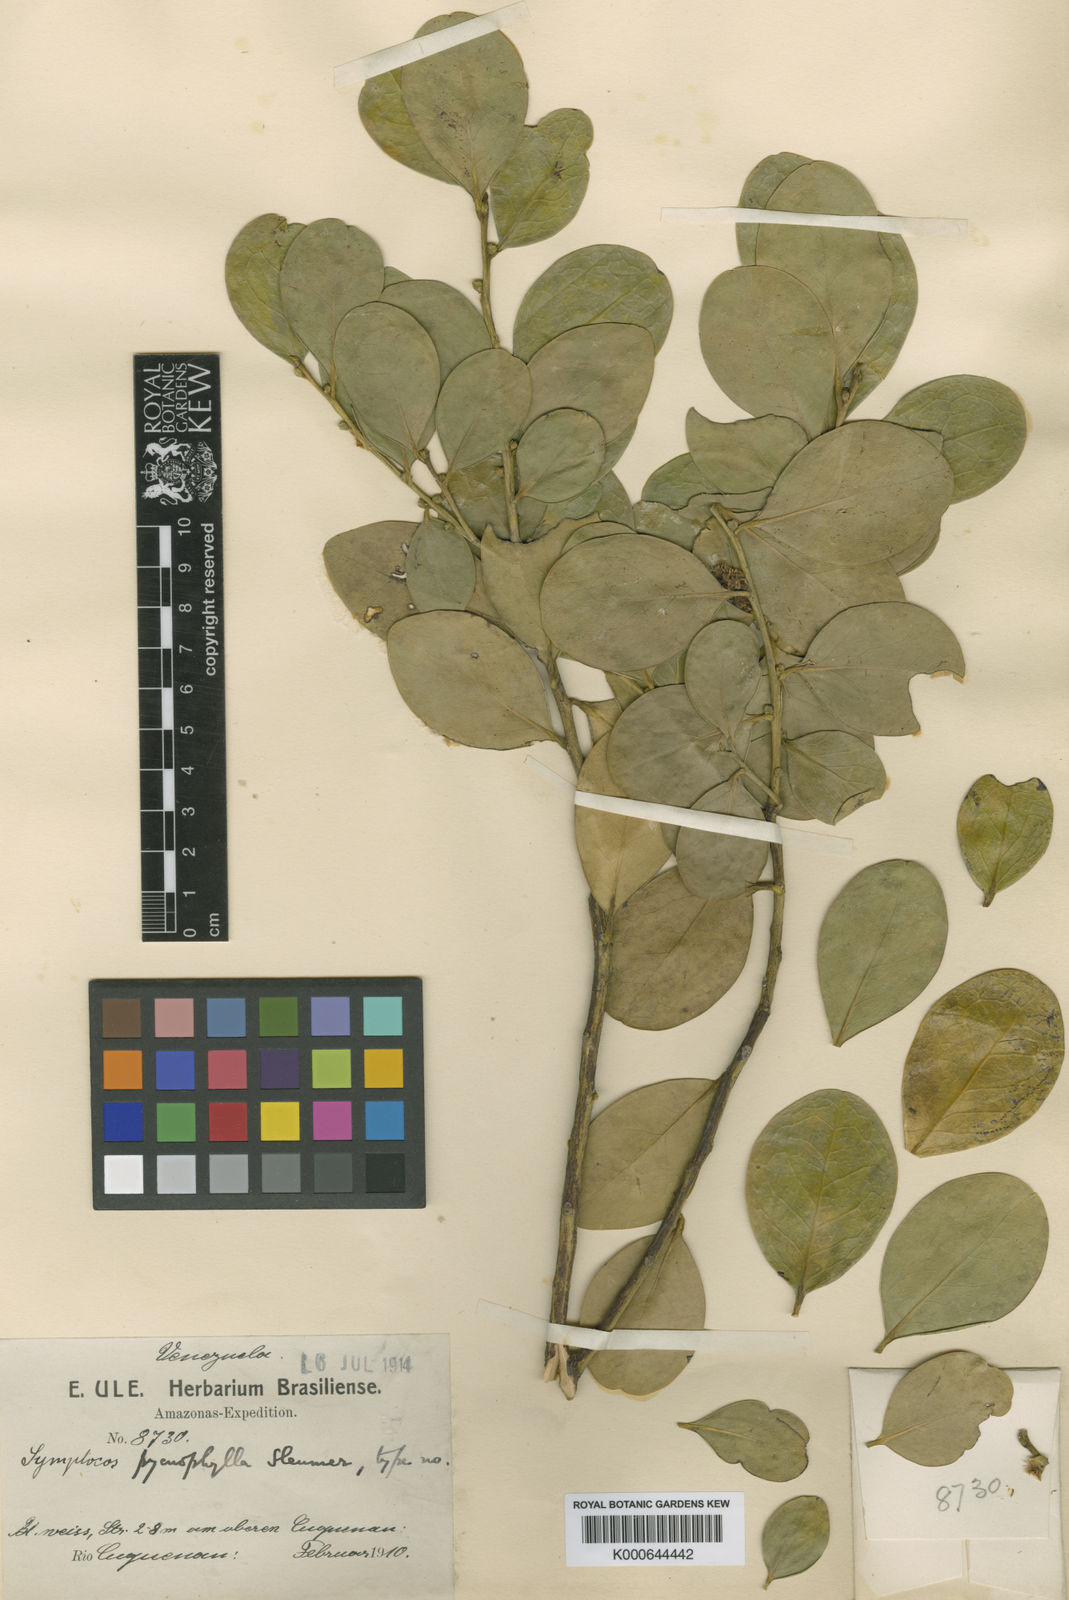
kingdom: Plantae
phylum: Tracheophyta
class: Magnoliopsida
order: Ericales
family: Symplocaceae
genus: Symplocos
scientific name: Symplocos pycnophylla
